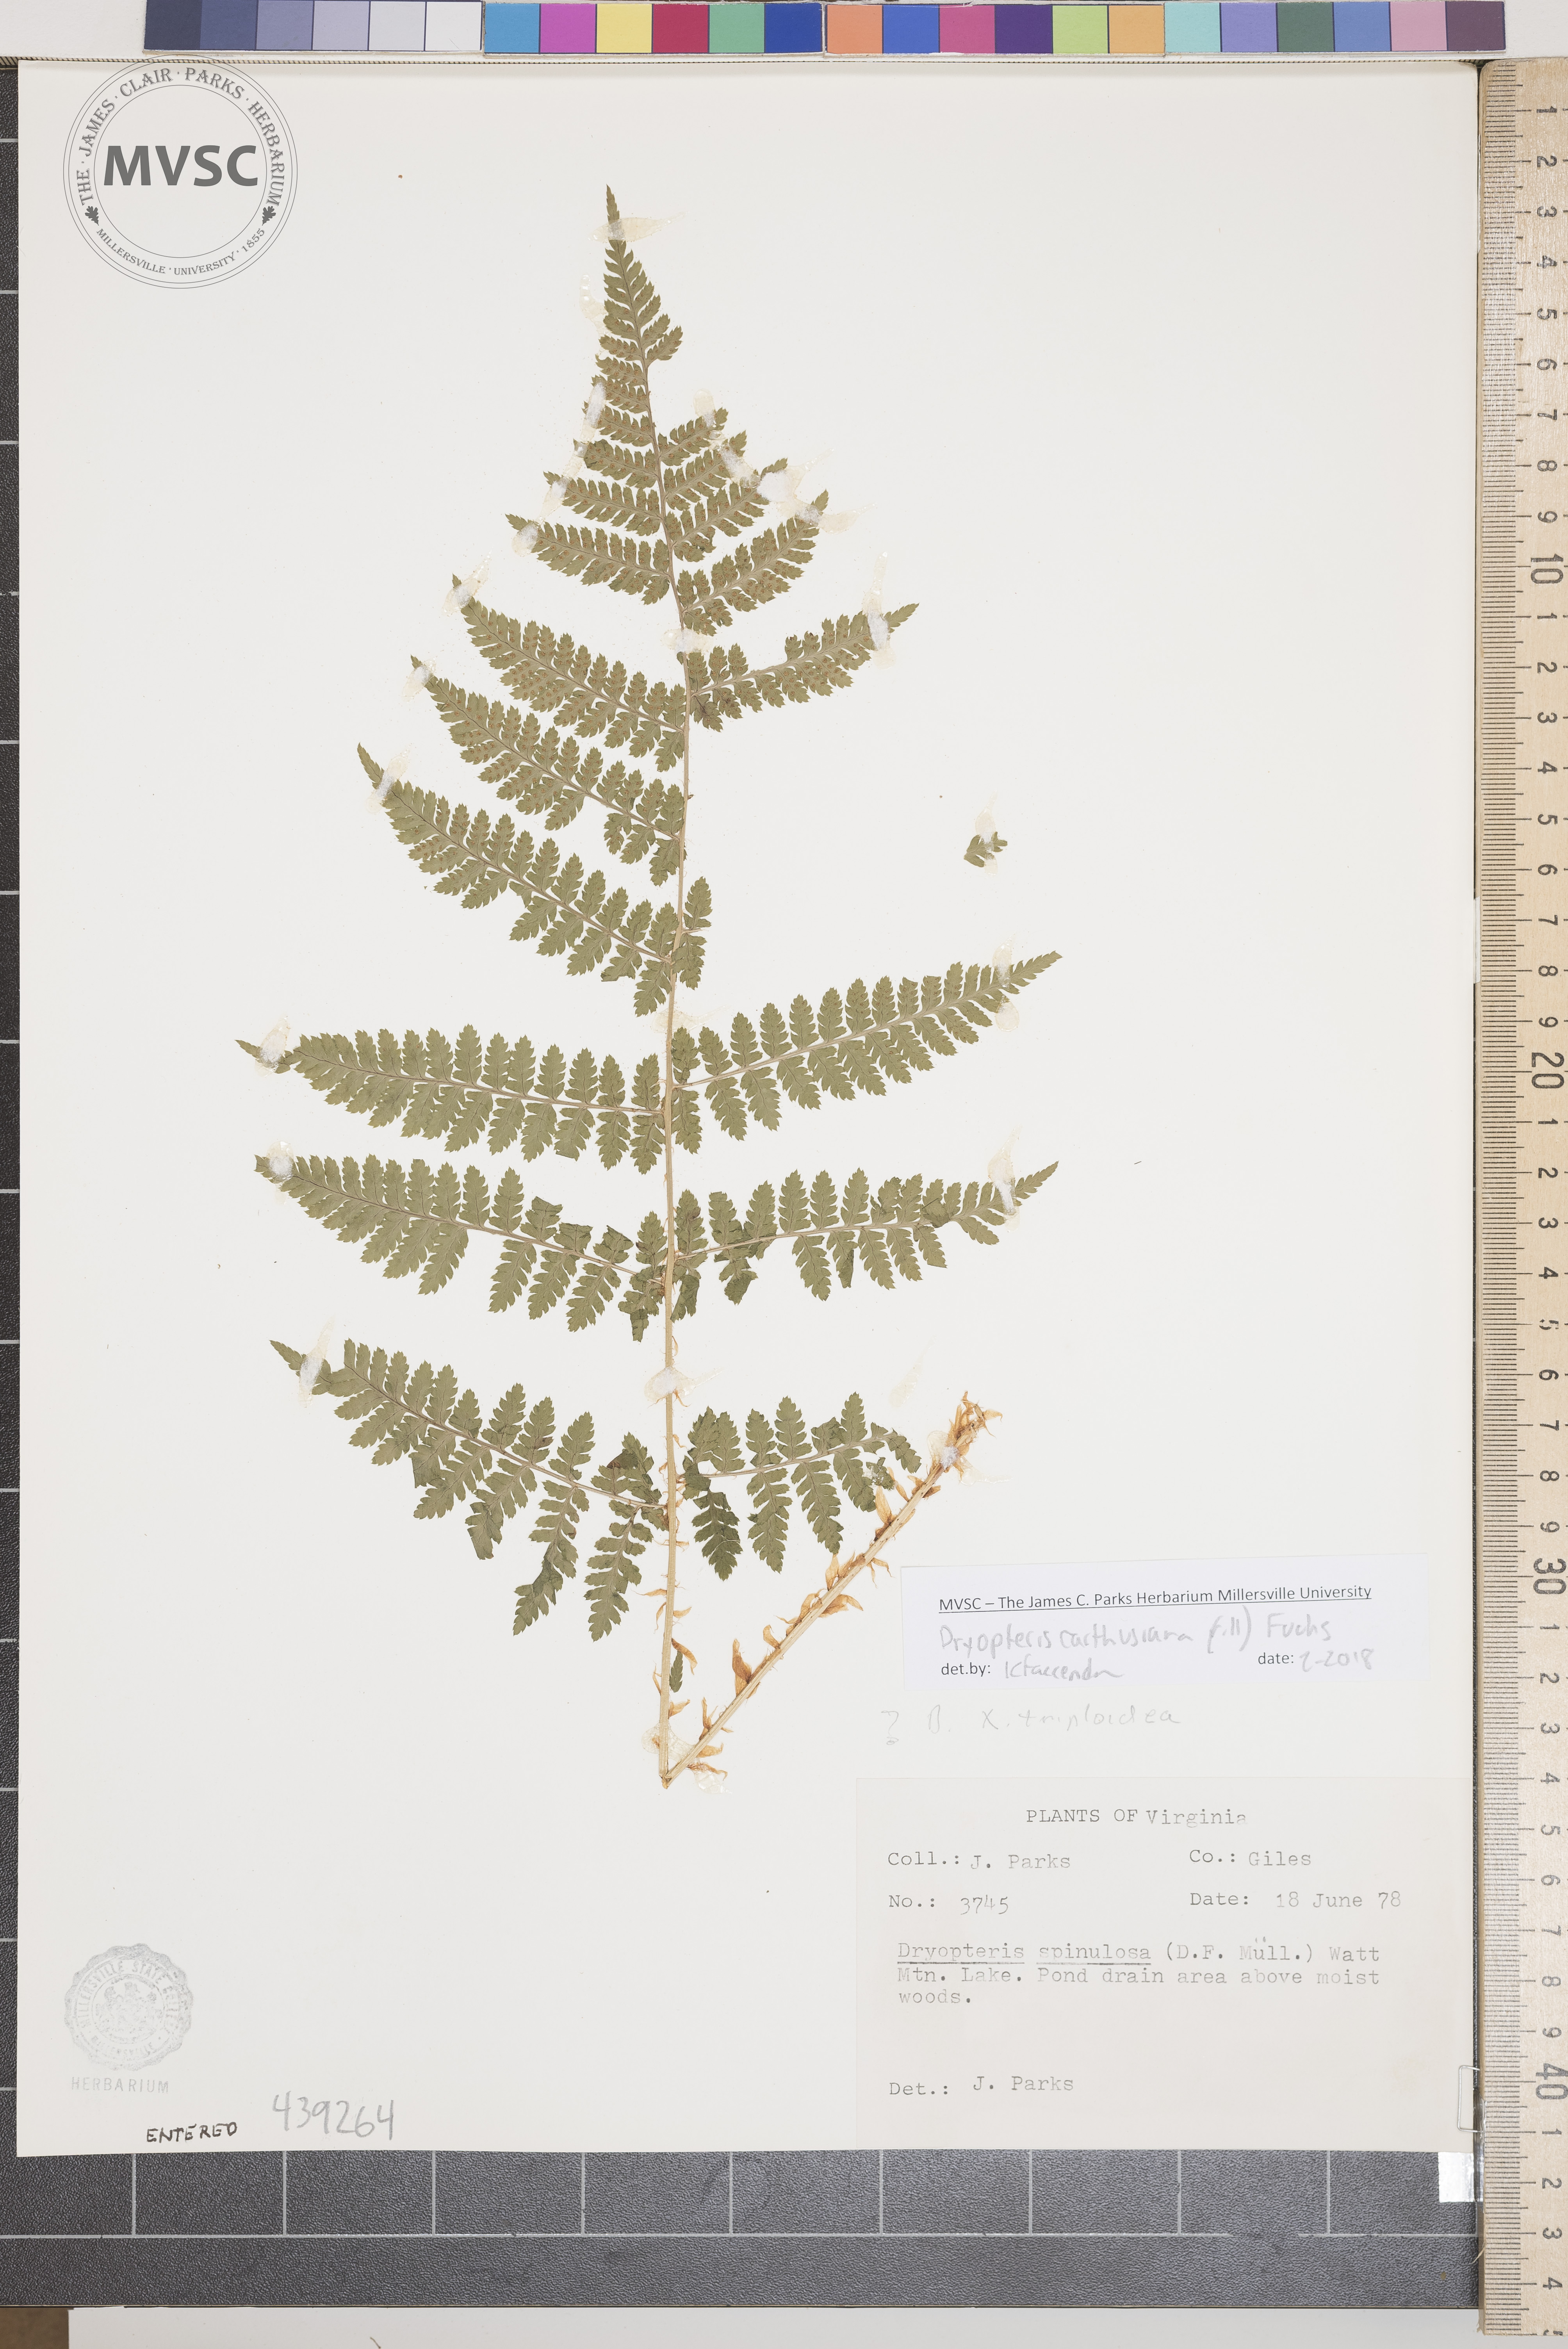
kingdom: Plantae
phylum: Tracheophyta
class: Polypodiopsida
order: Polypodiales
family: Dryopteridaceae
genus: Dryopteris
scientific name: Dryopteris carthusiana
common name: Narrow buckler-fern
